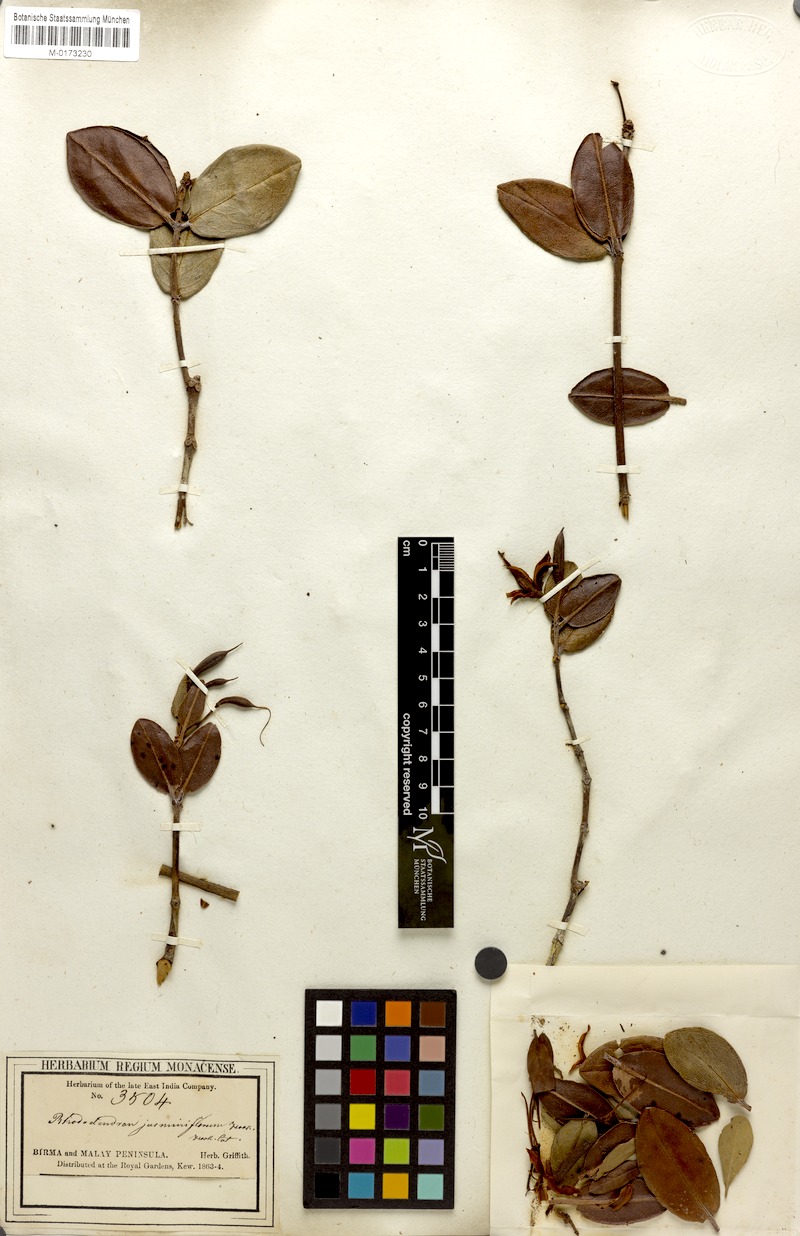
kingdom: Plantae
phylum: Tracheophyta
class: Magnoliopsida
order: Ericales
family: Ericaceae
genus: Rhododendron
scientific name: Rhododendron jasminiflorum
